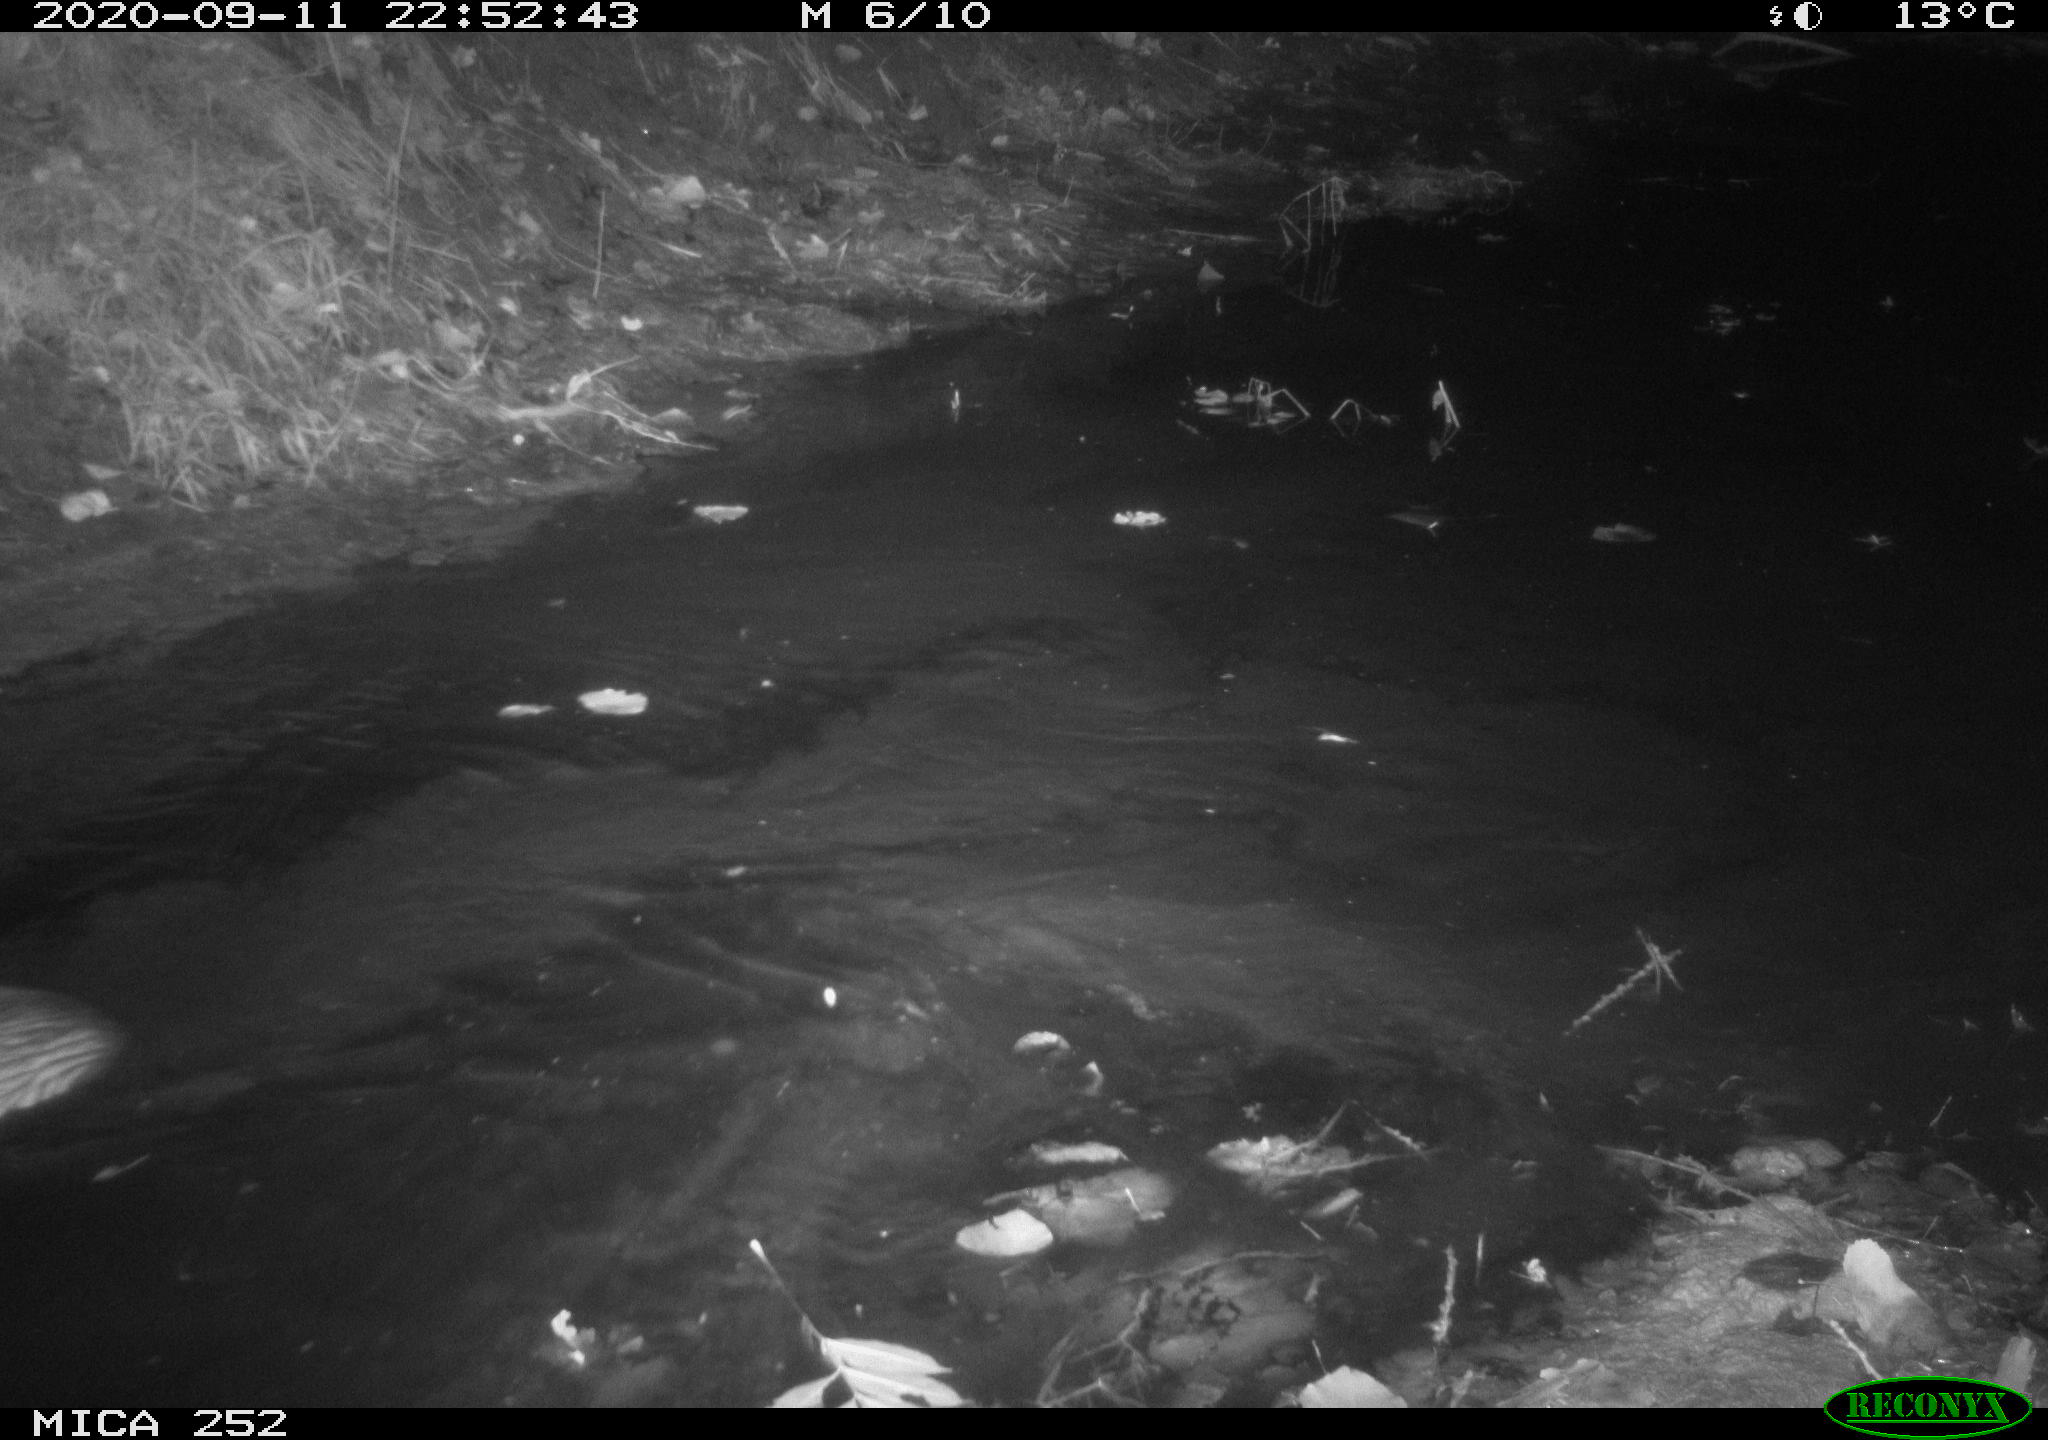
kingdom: Animalia
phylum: Chordata
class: Mammalia
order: Rodentia
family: Castoridae
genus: Castor
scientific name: Castor fiber
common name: Eurasian beaver
